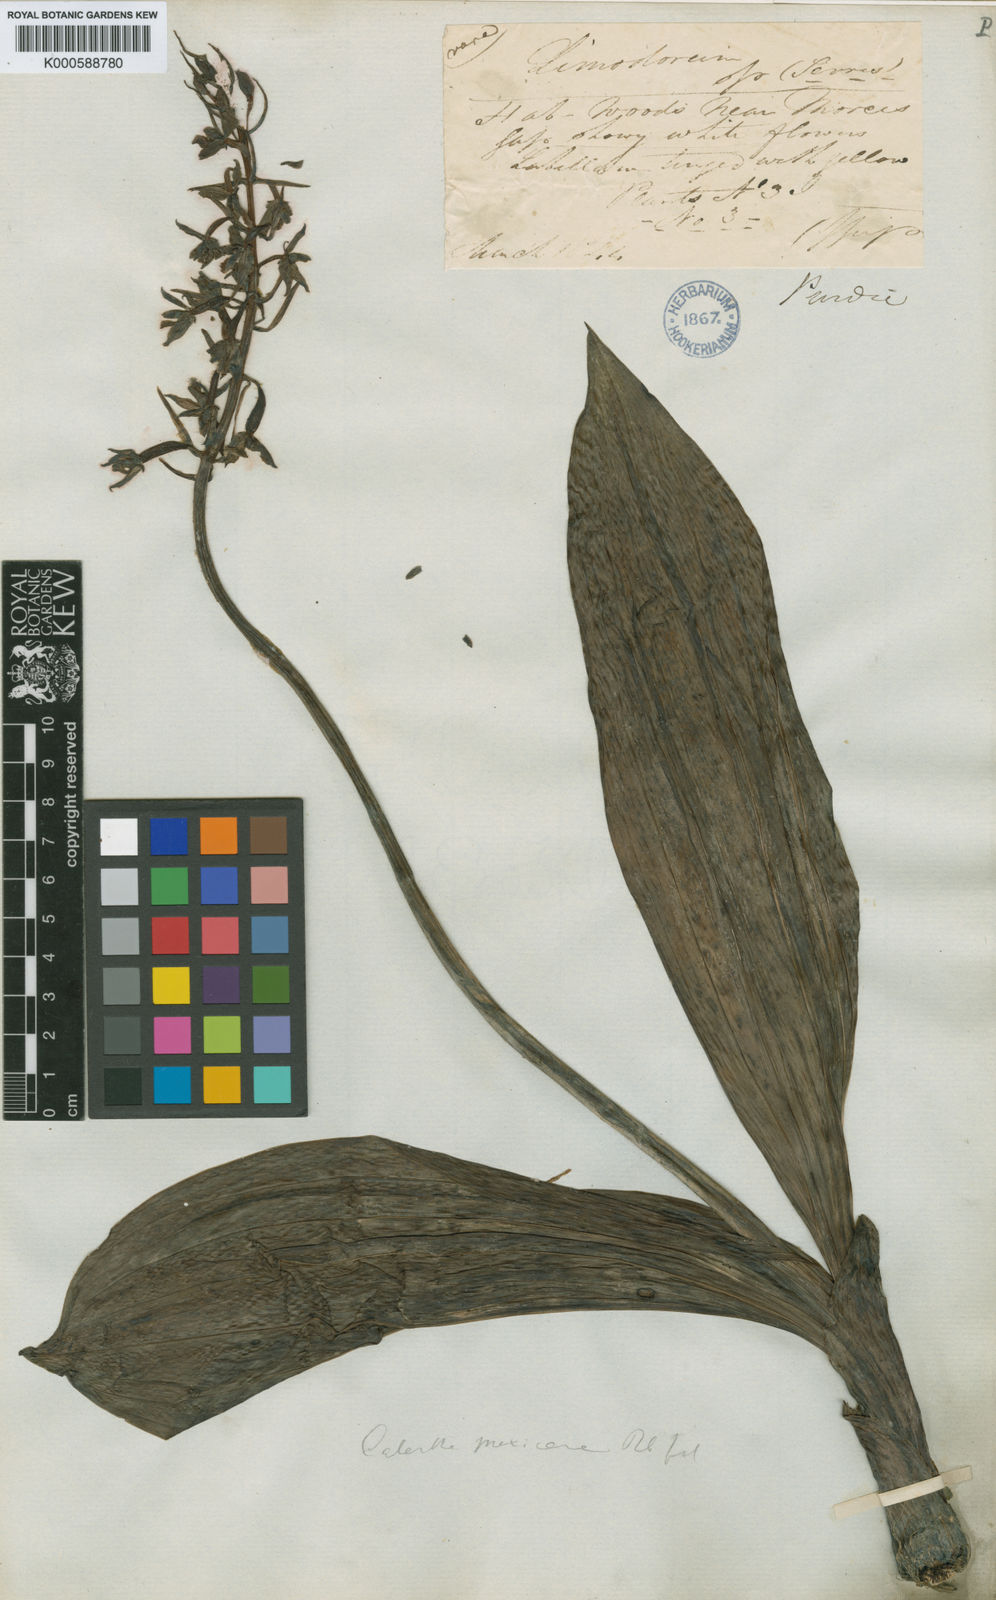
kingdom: Plantae
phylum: Tracheophyta
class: Liliopsida
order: Asparagales
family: Orchidaceae
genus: Calanthe
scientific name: Calanthe calanthoides
